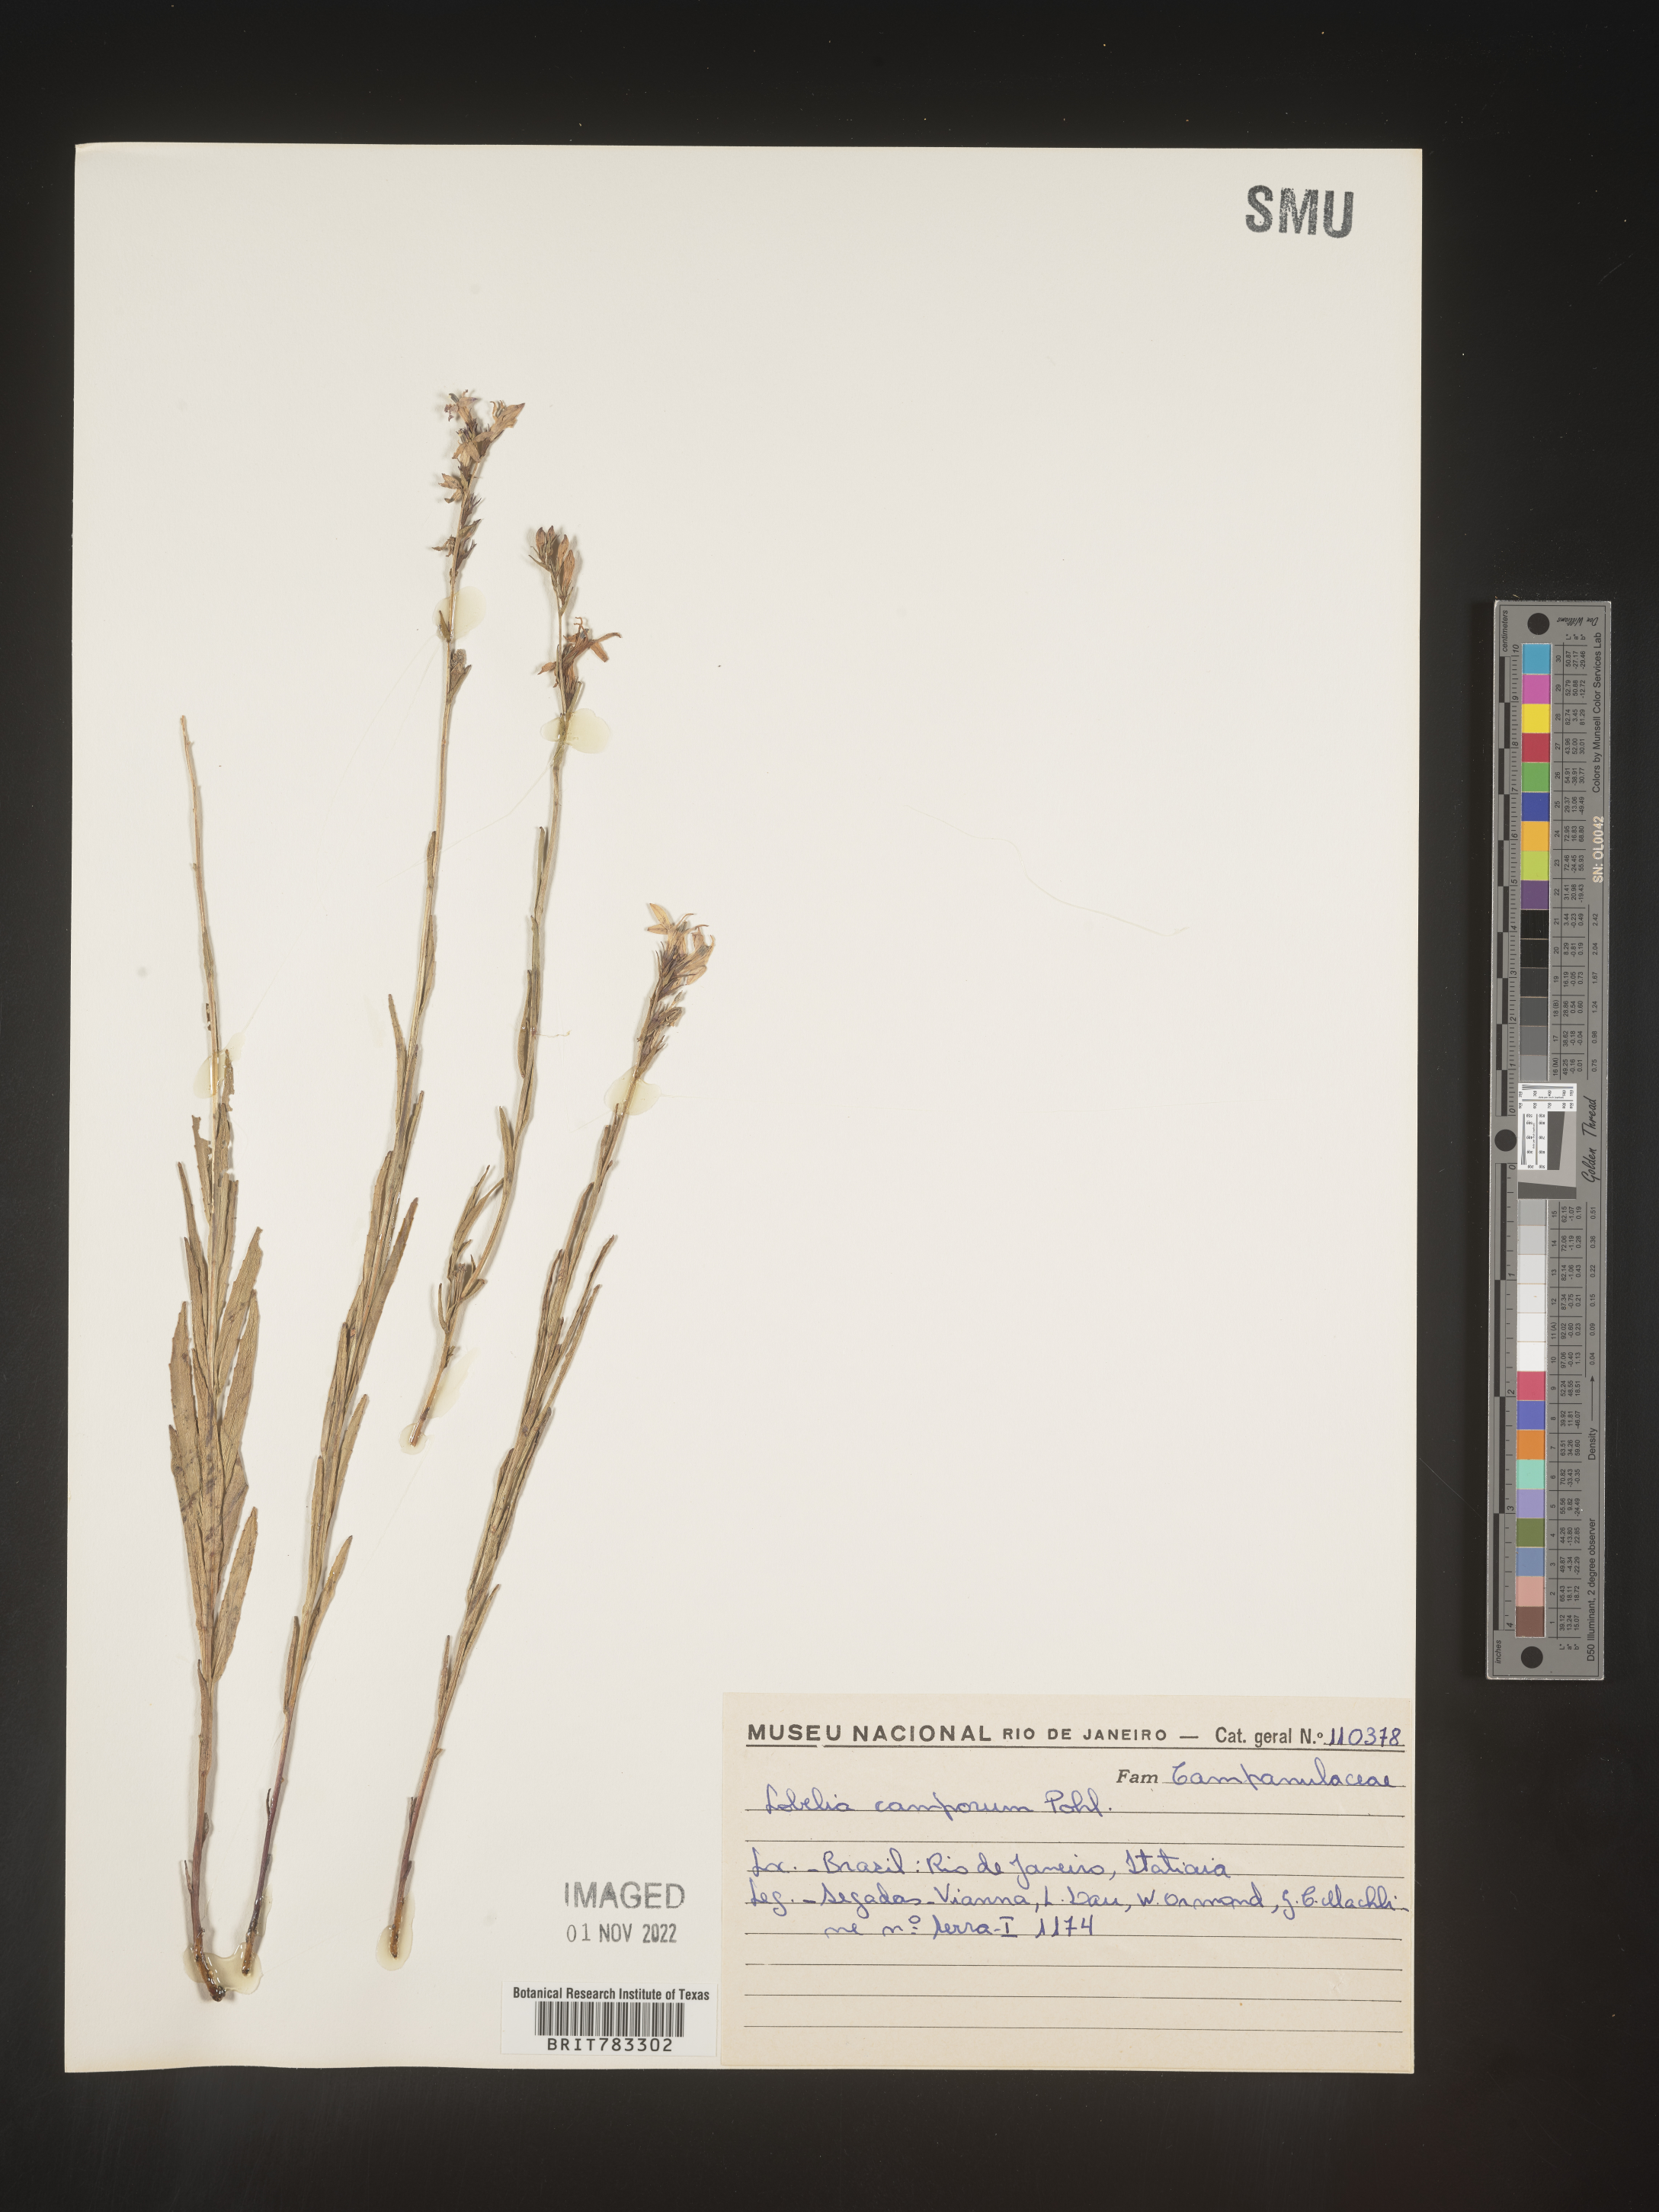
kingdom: Plantae
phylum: Tracheophyta
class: Magnoliopsida
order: Asterales
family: Campanulaceae
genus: Lobelia
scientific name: Lobelia
